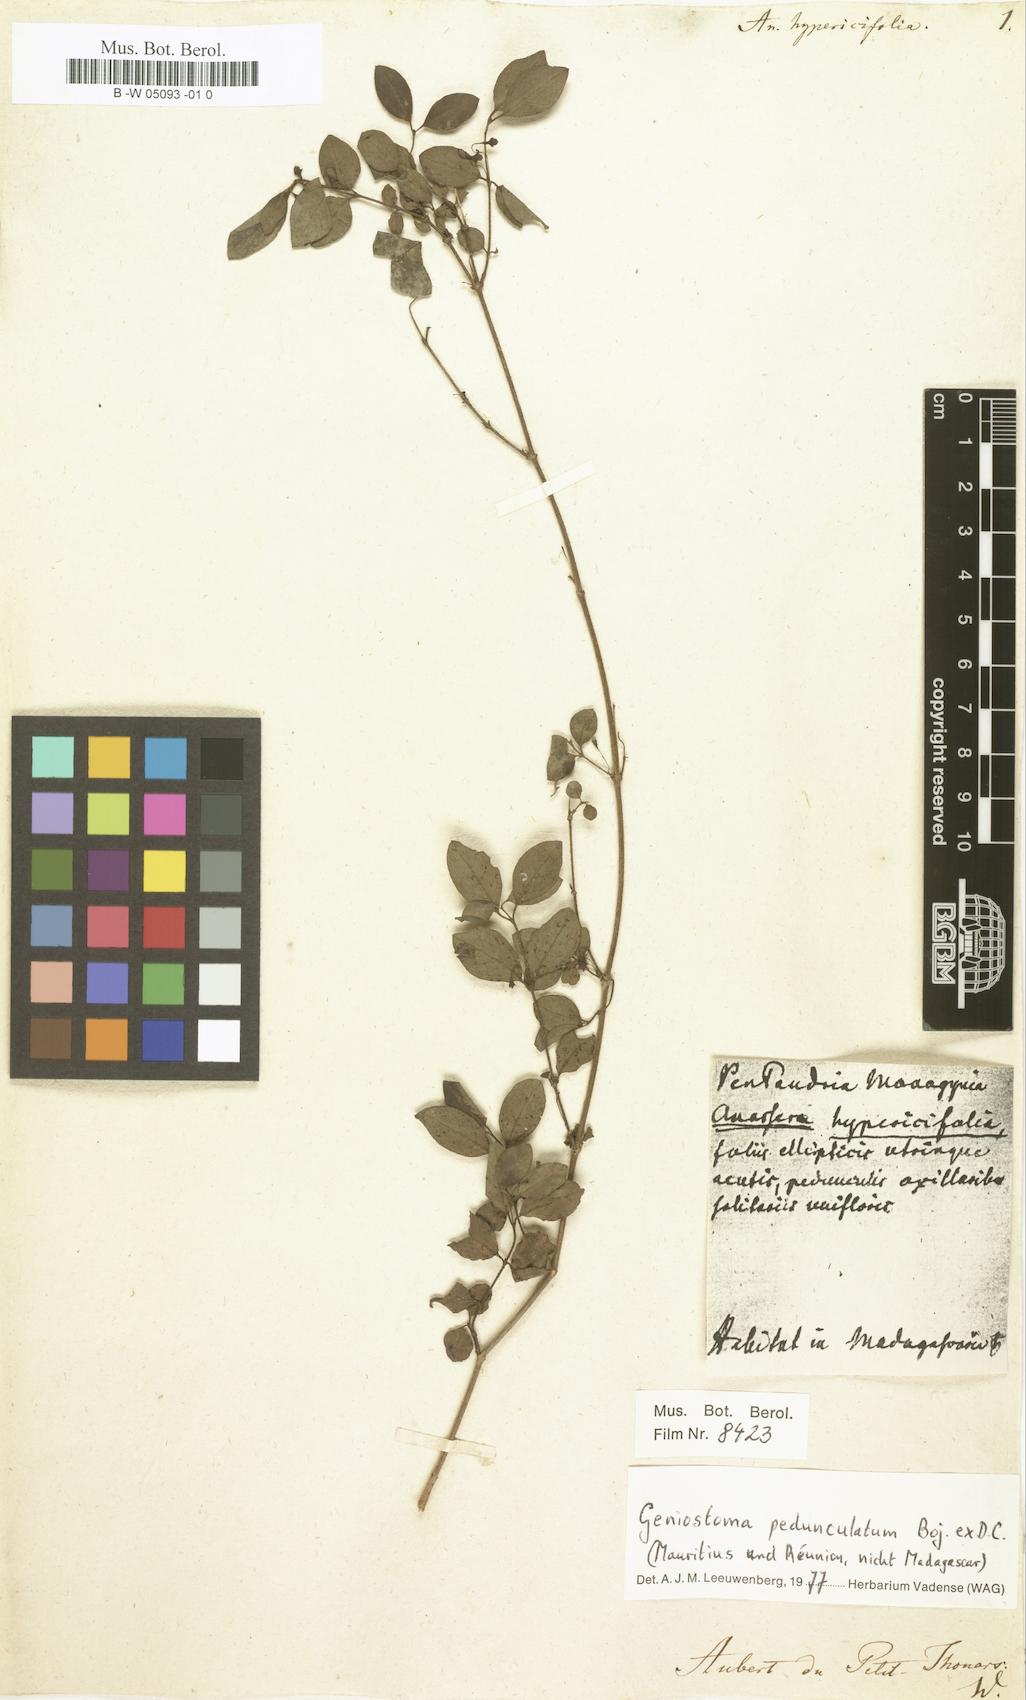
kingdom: Plantae
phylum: Tracheophyta
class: Magnoliopsida
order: Gentianales
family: Loganiaceae
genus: Anassera
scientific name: Anassera
